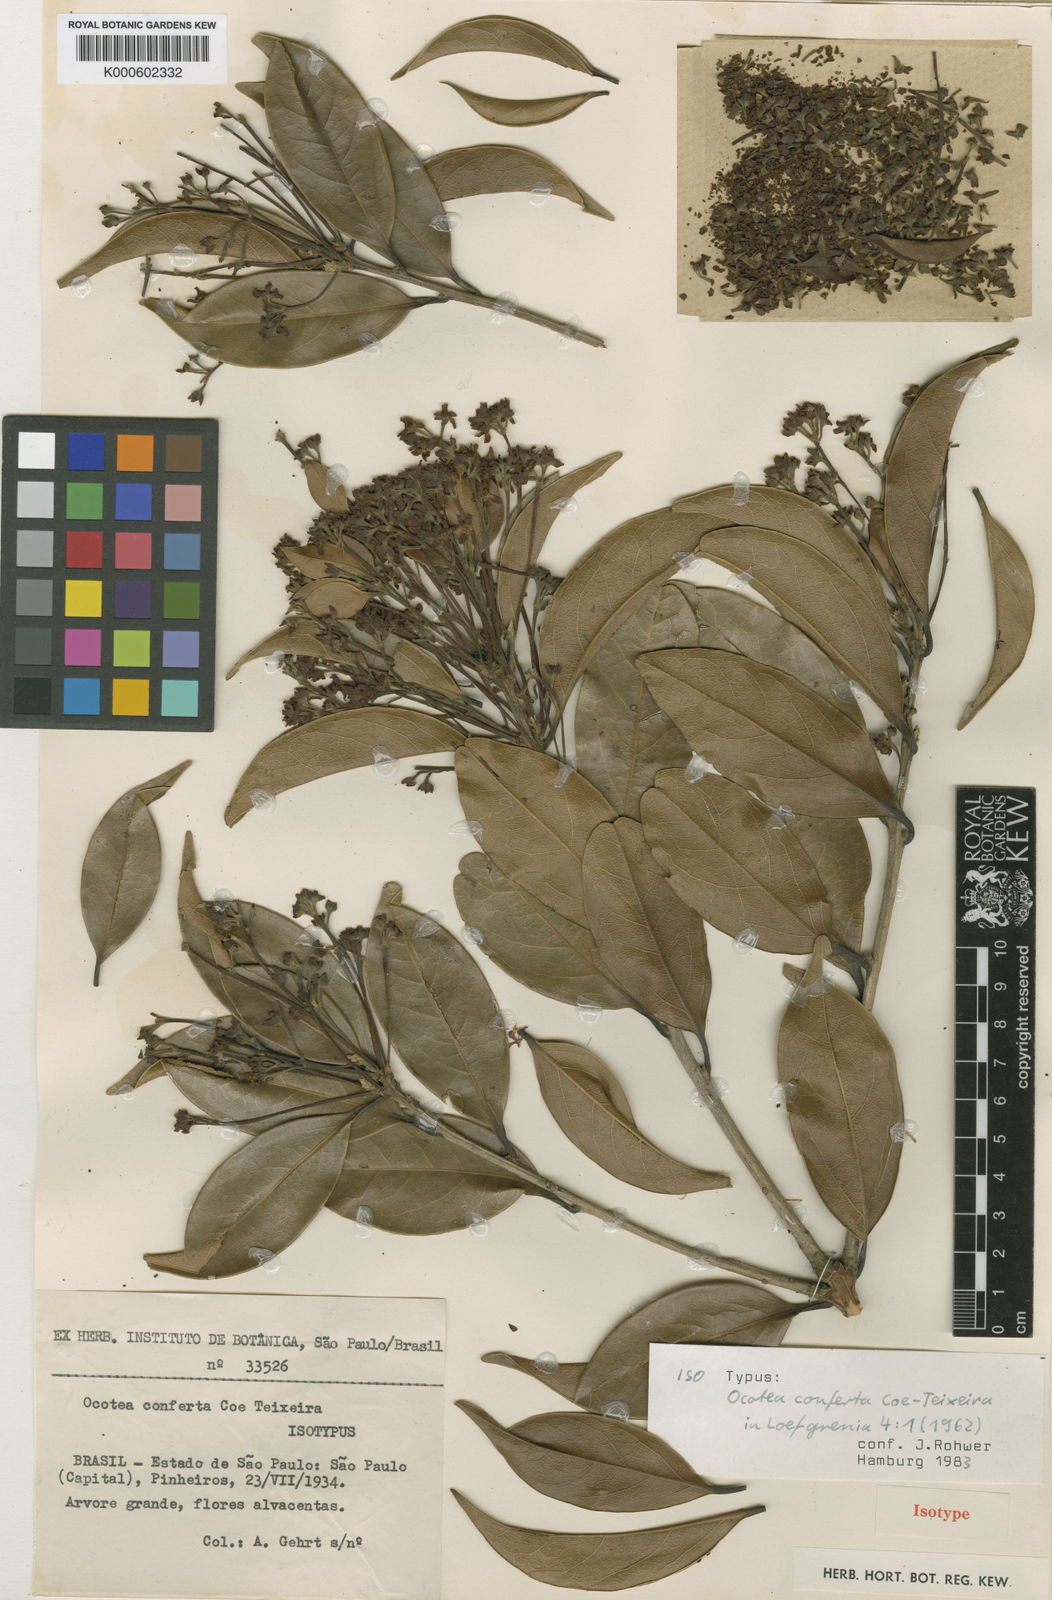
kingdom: Plantae
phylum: Tracheophyta
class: Magnoliopsida
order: Laurales
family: Lauraceae
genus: Ocotea
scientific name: Ocotea mosenii
